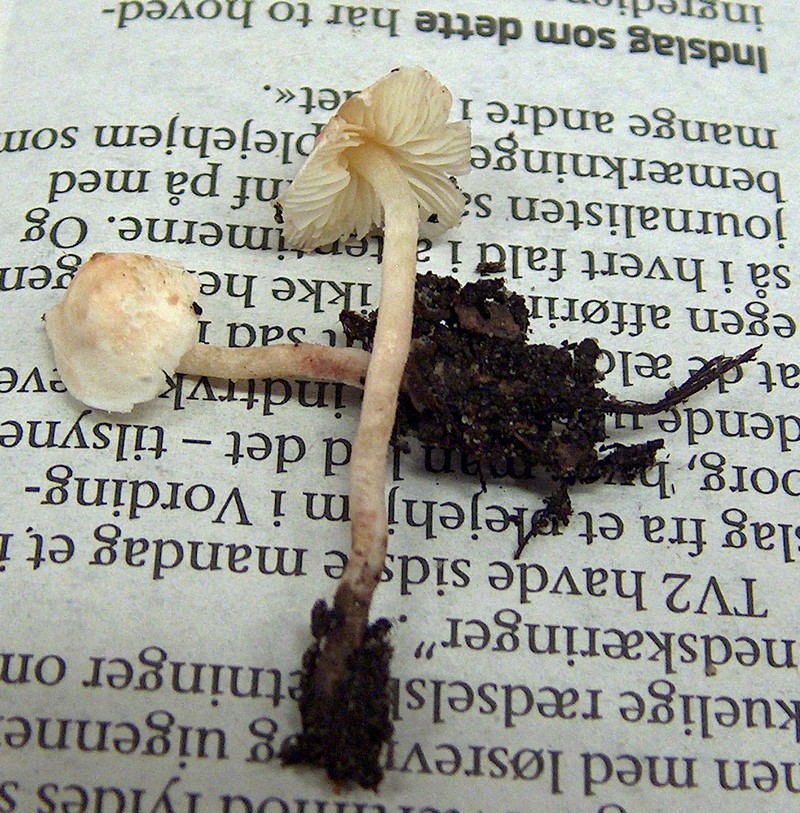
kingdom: Fungi
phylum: Basidiomycota
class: Agaricomycetes
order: Agaricales
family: Agaricaceae
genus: Cystolepiota
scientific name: Cystolepiota seminuda
